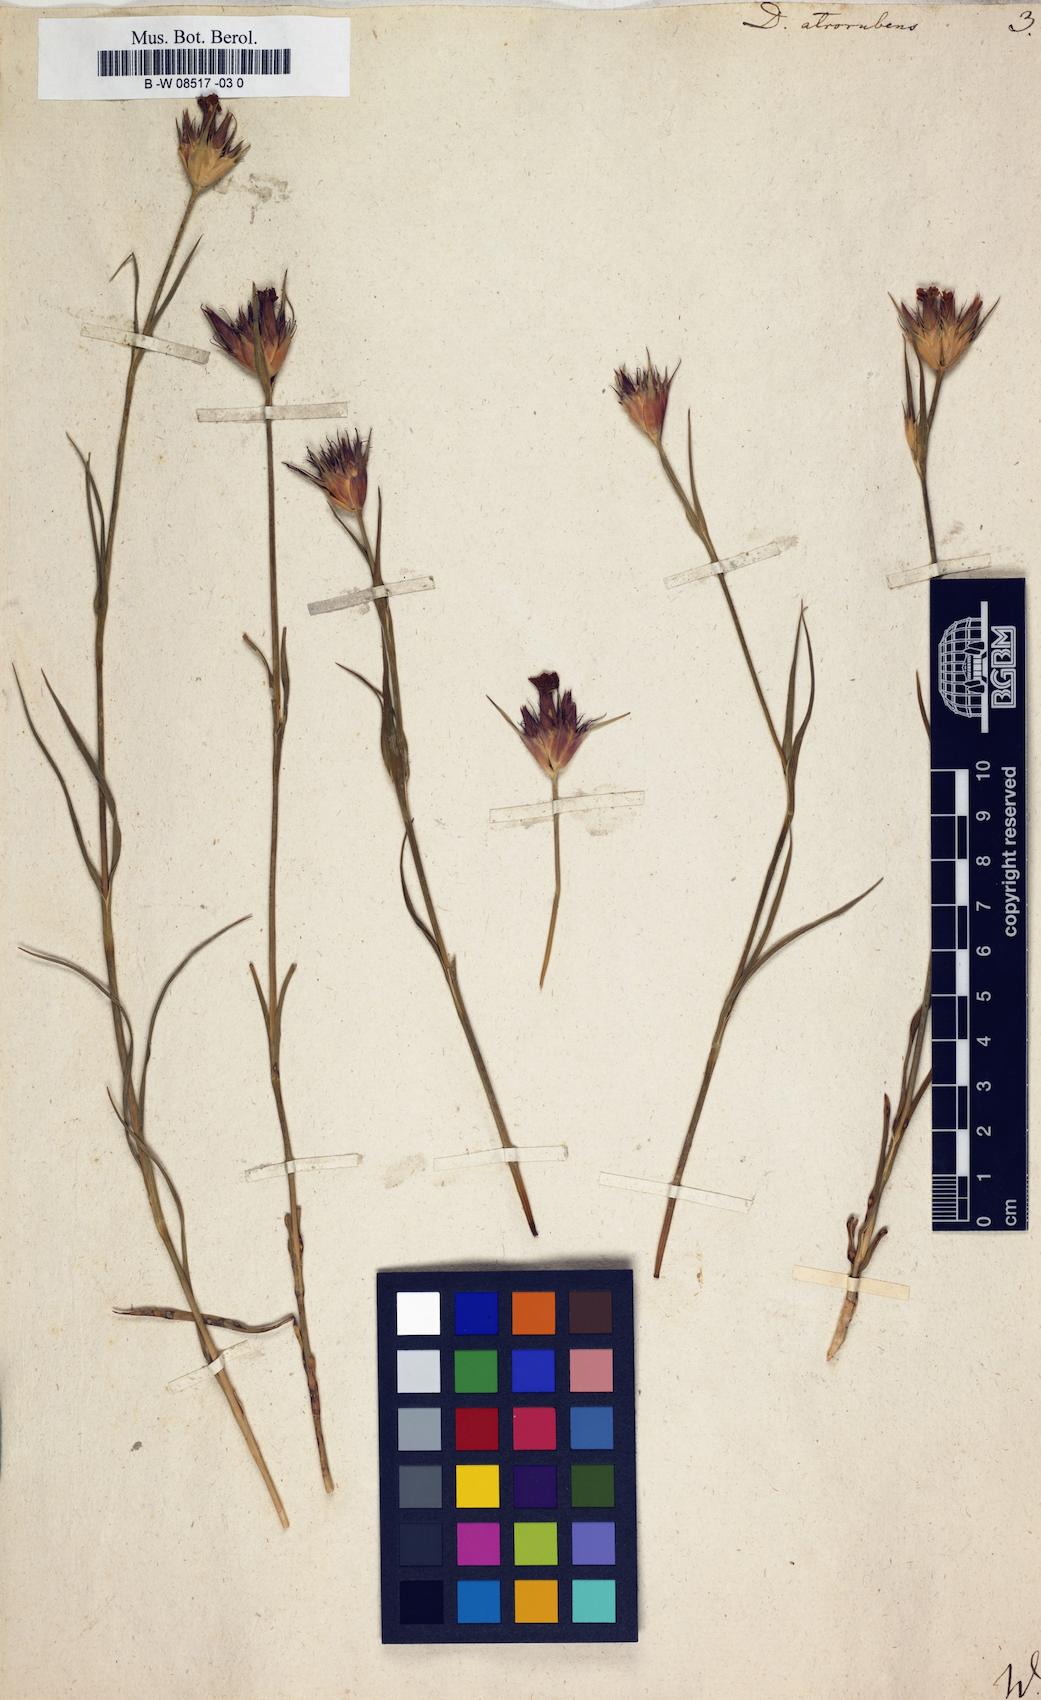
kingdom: Plantae
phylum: Tracheophyta
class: Magnoliopsida
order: Caryophyllales
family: Caryophyllaceae
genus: Dianthus
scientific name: Dianthus atrorubens
